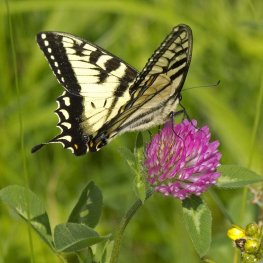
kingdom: Animalia
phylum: Arthropoda
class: Insecta
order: Lepidoptera
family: Papilionidae
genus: Pterourus
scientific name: Pterourus canadensis
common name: Canadian Tiger Swallowtail
